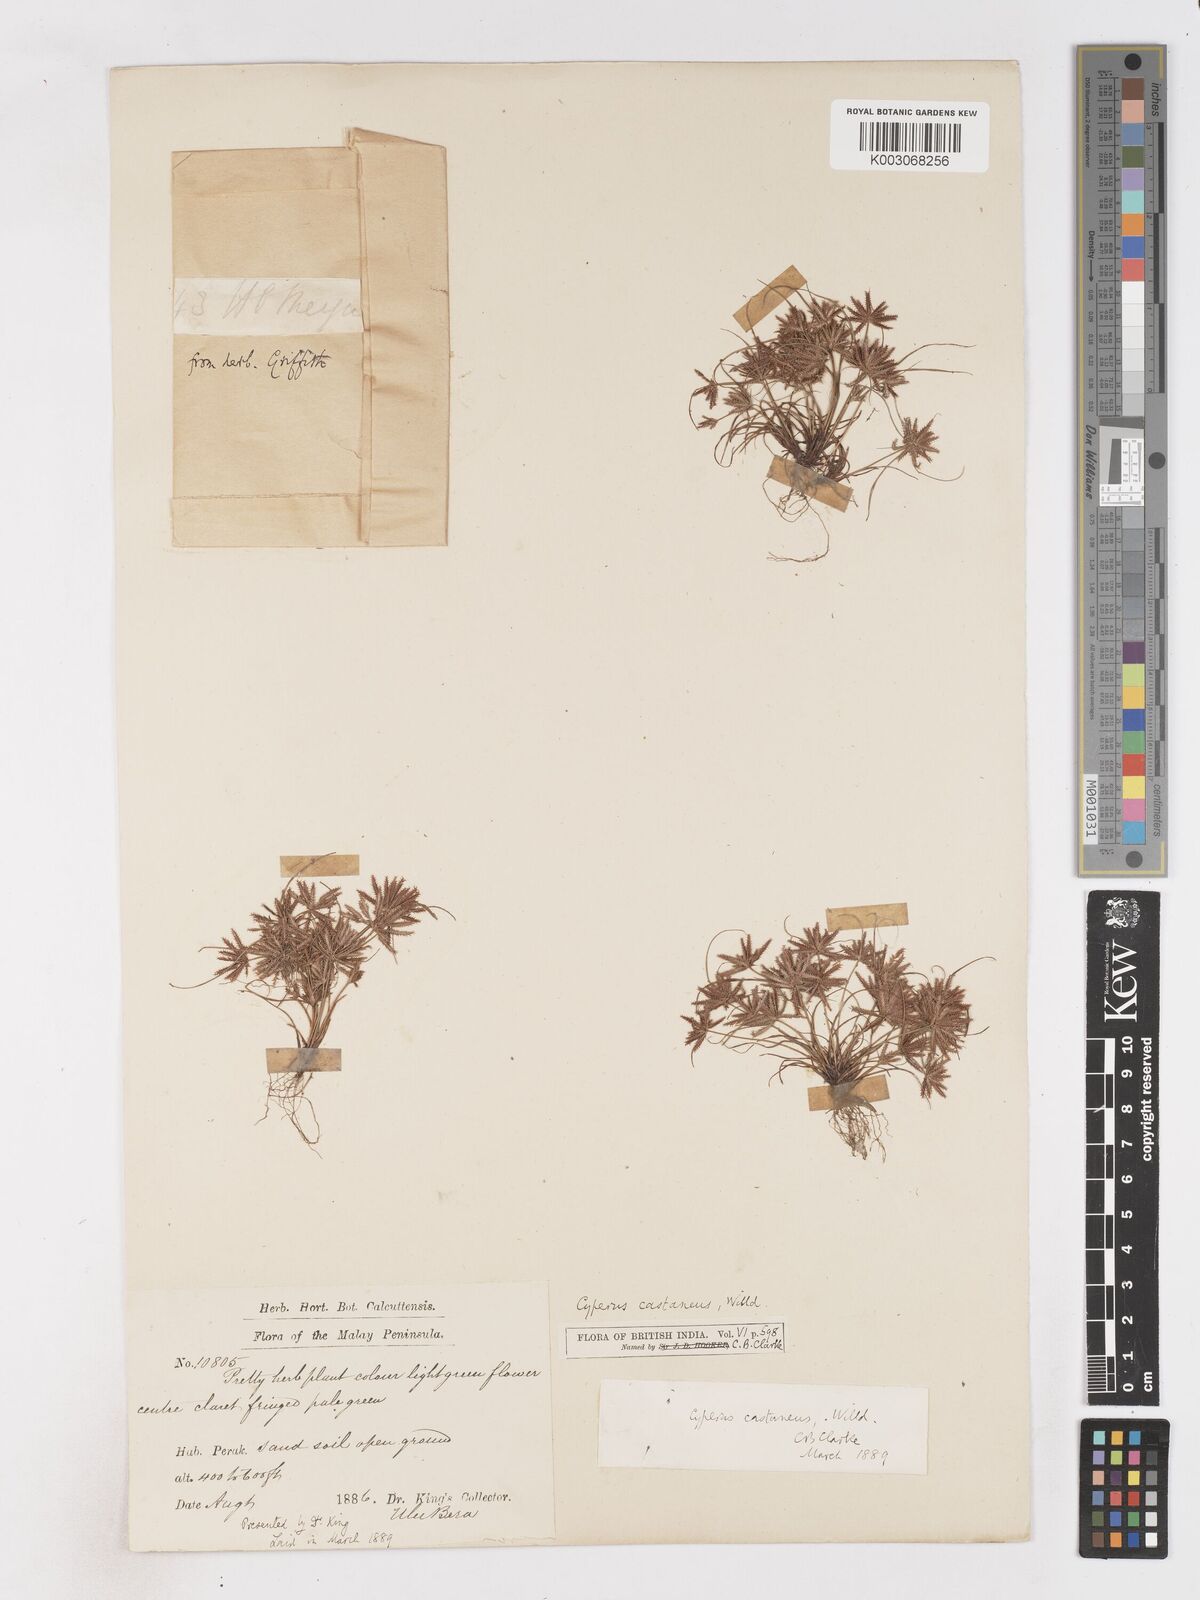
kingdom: Plantae
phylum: Tracheophyta
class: Liliopsida
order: Poales
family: Cyperaceae
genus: Cyperus
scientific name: Cyperus castaneus
